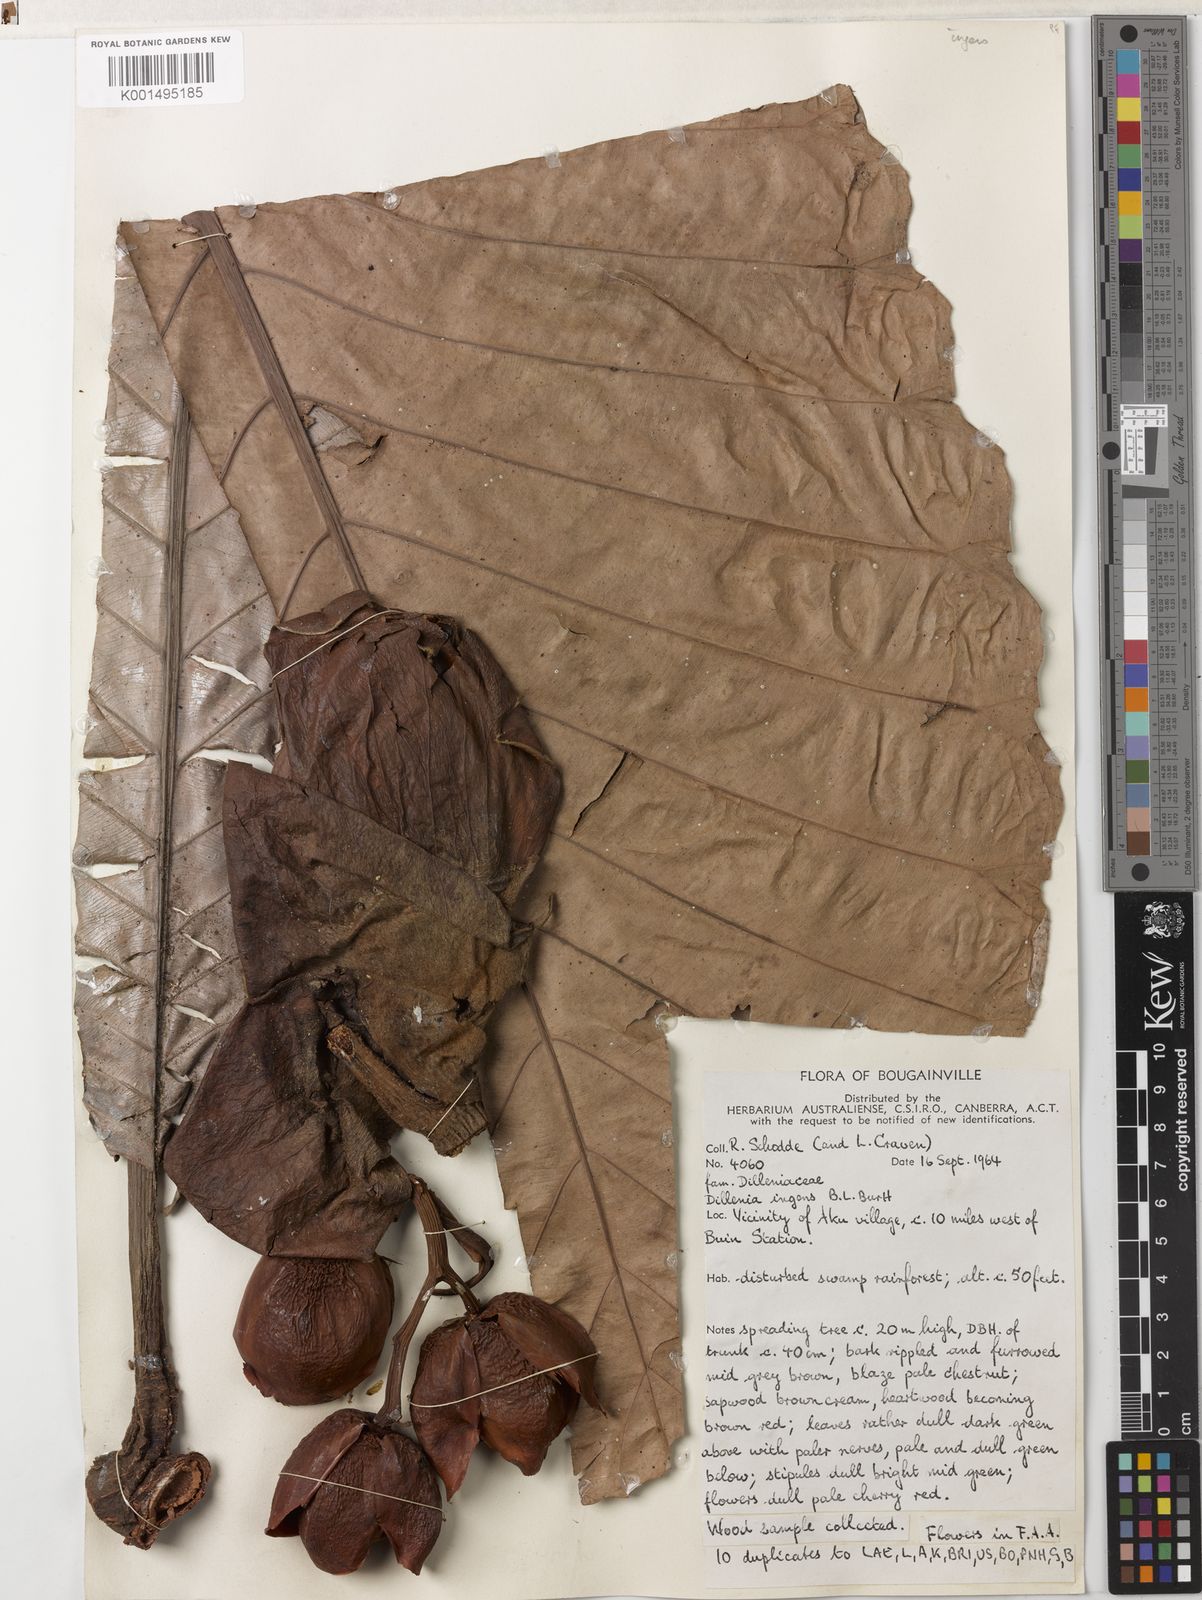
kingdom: Plantae
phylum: Tracheophyta
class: Magnoliopsida
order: Dilleniales
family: Dilleniaceae
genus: Dillenia
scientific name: Dillenia ingens
